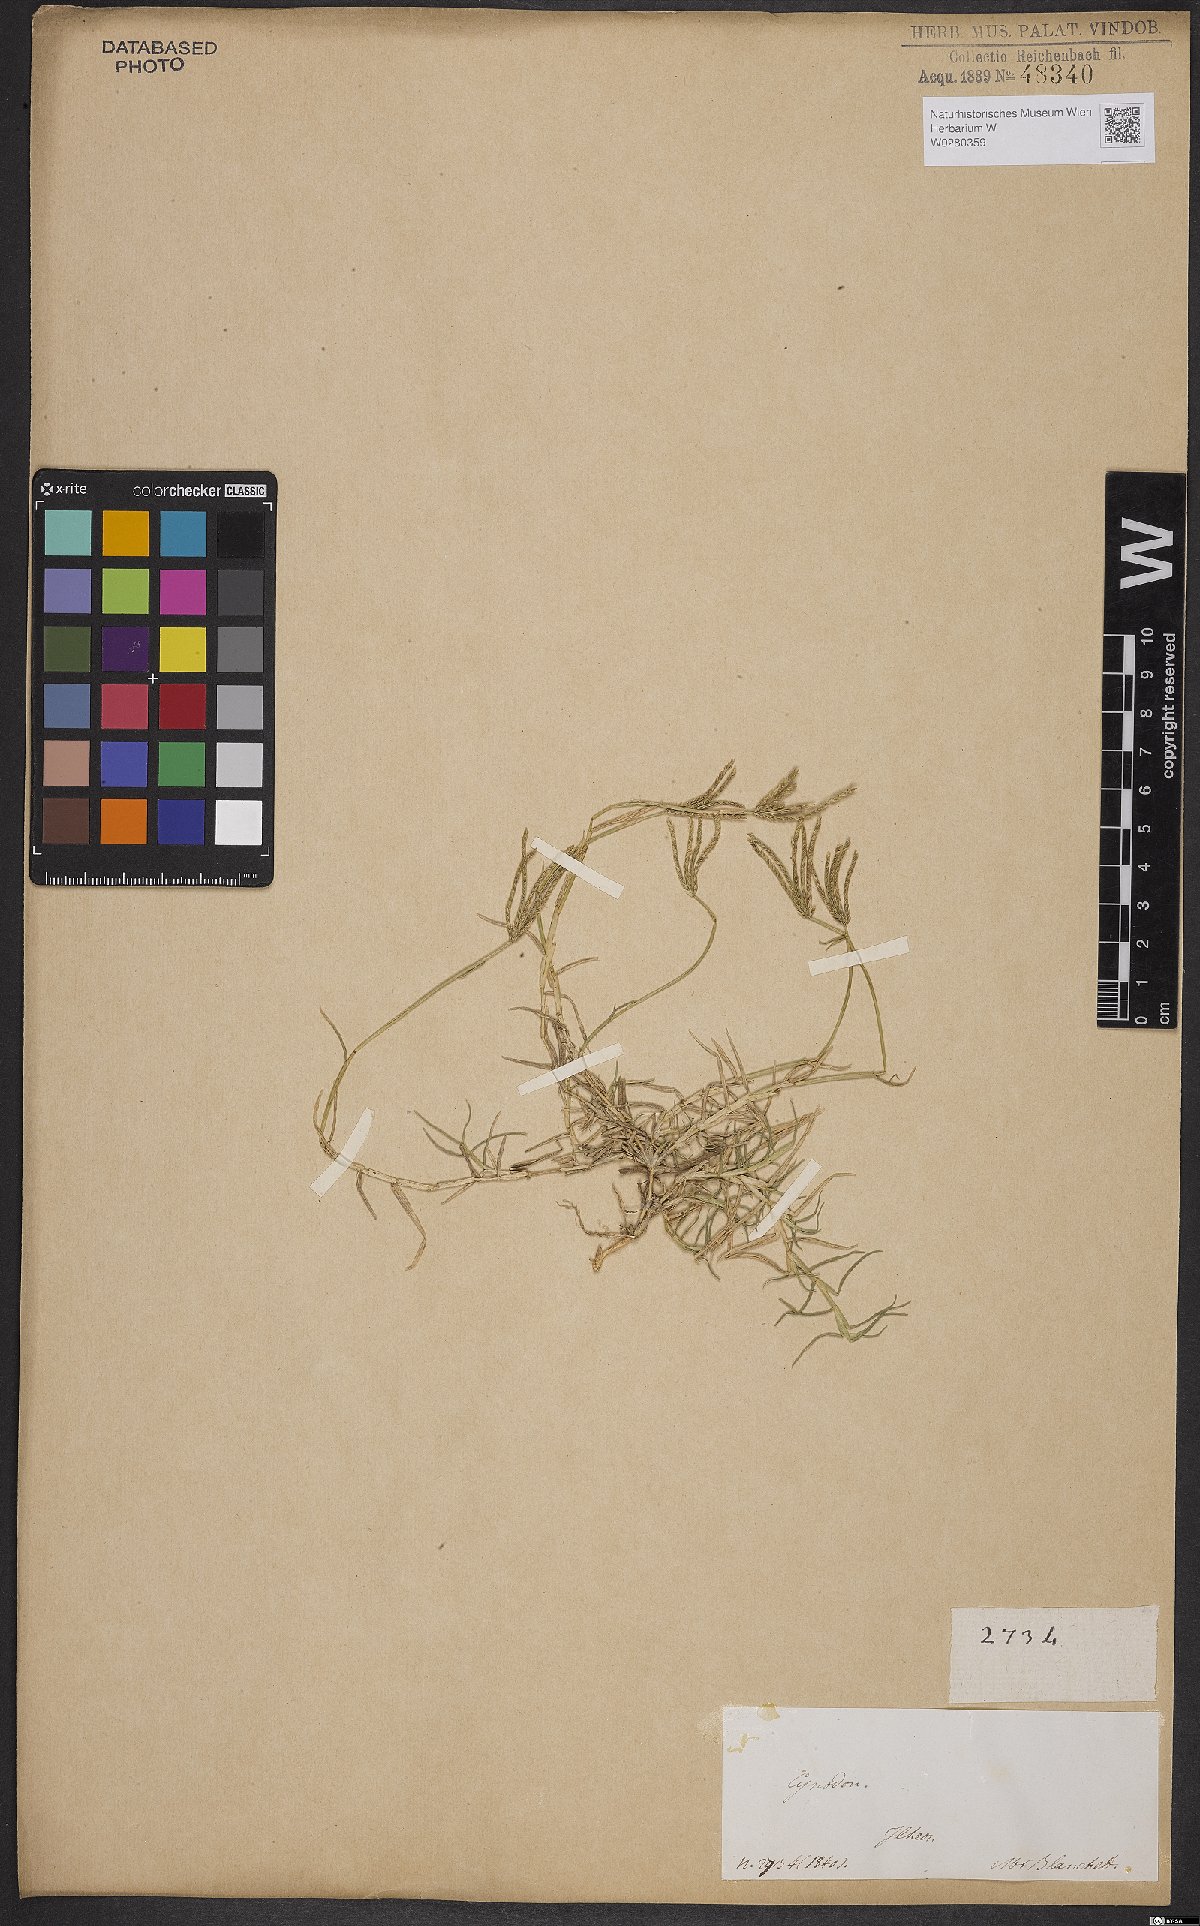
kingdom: Plantae
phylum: Tracheophyta
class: Liliopsida
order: Poales
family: Poaceae
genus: Cynodon
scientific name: Cynodon dactylon
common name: Bermuda grass
